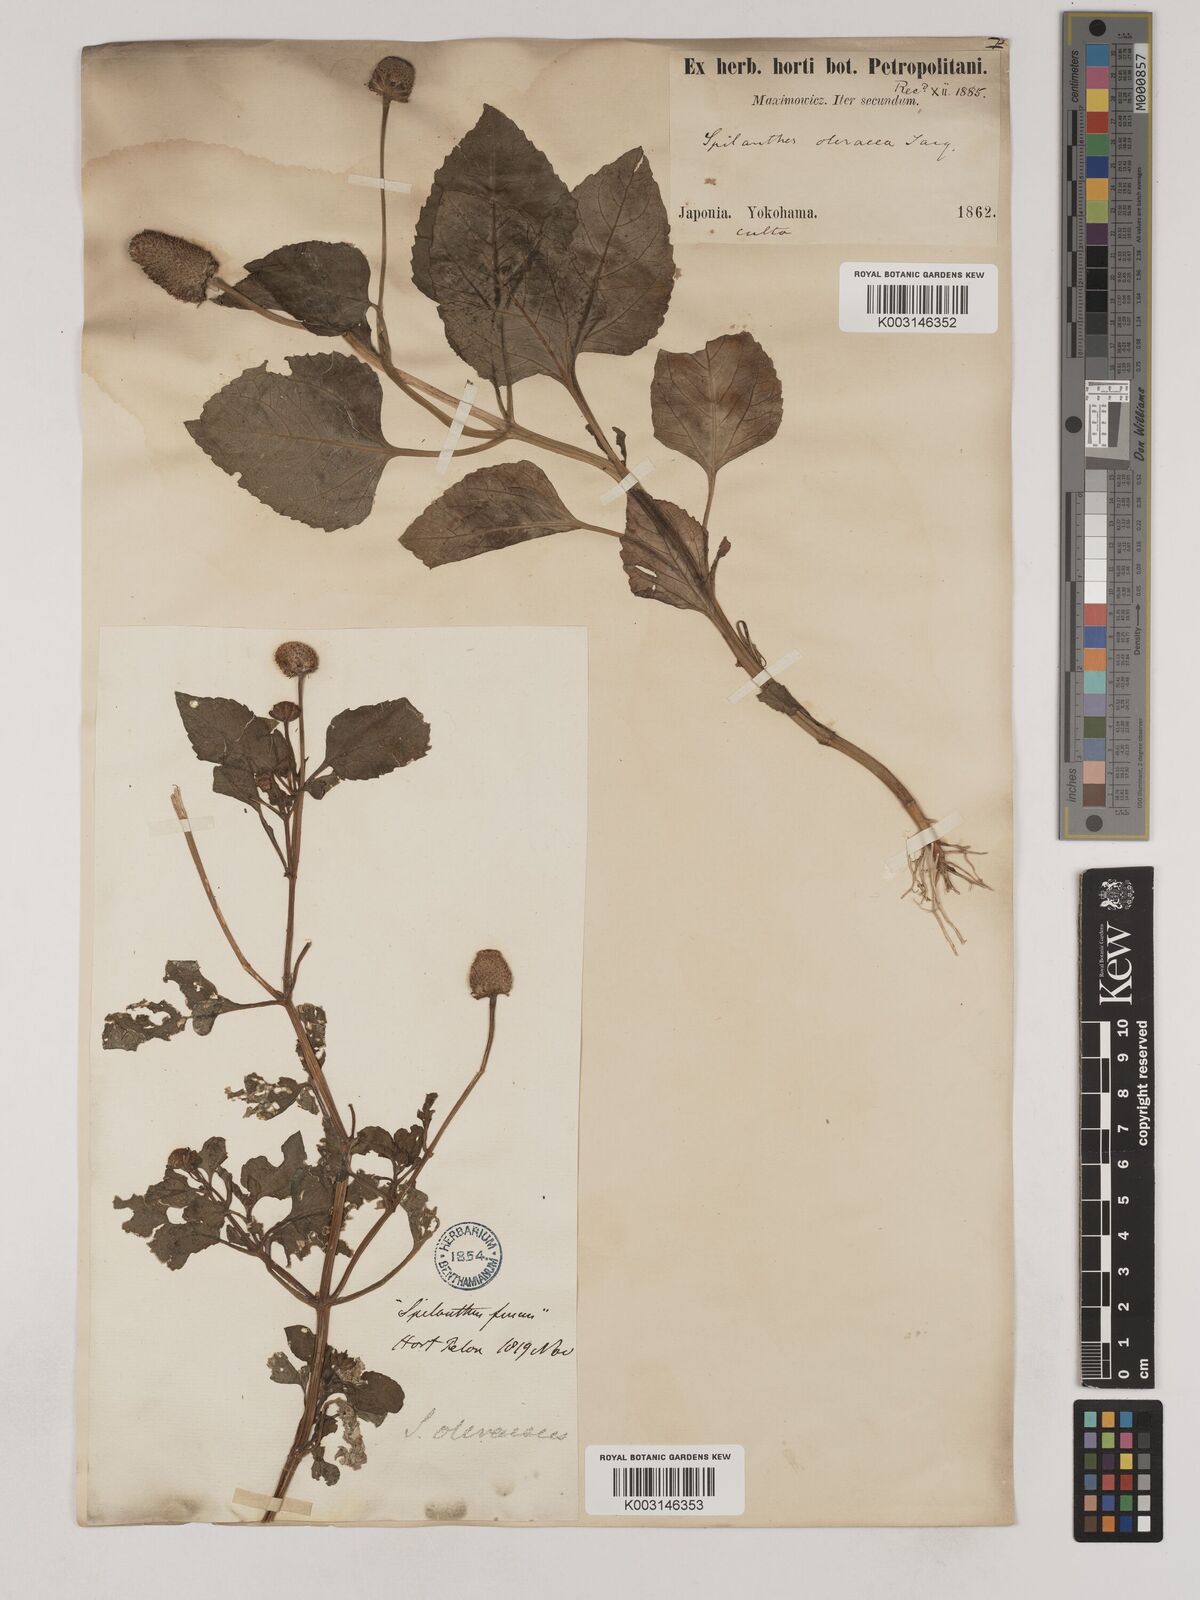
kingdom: Plantae
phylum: Tracheophyta
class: Magnoliopsida
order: Asterales
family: Asteraceae
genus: Acmella
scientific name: Acmella paniculata
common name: Panicled spot flower
